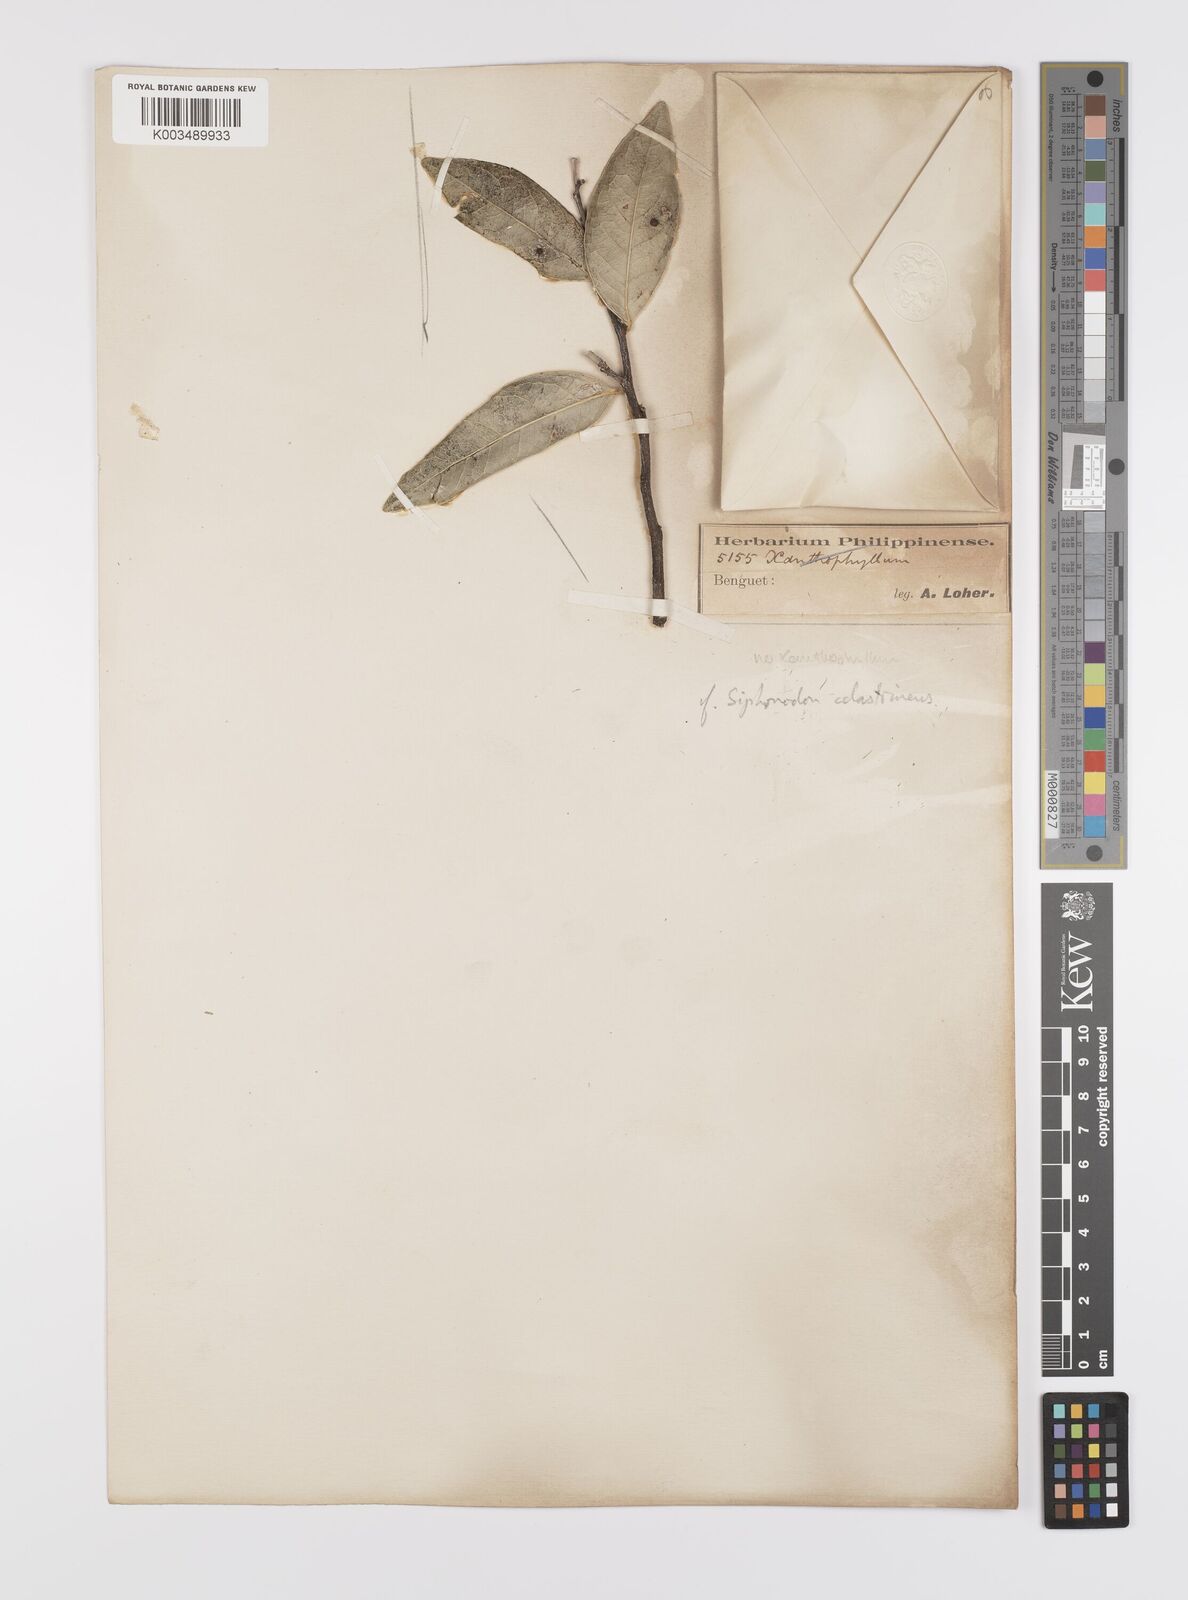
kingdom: Plantae
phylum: Tracheophyta
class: Magnoliopsida
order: Celastrales
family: Celastraceae
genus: Siphonodon
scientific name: Siphonodon celastrineus
